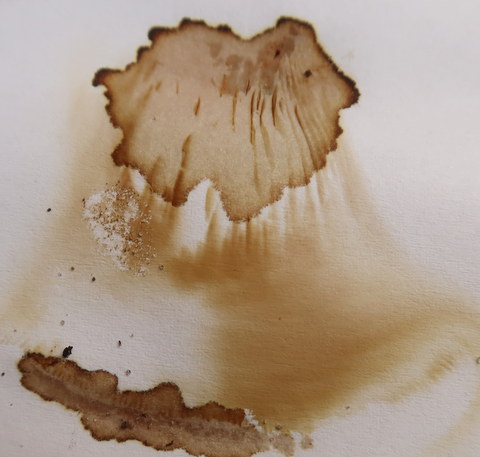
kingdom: Fungi
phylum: Basidiomycota
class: Agaricomycetes
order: Boletales
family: Paxillaceae
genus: Paxillus
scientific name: Paxillus obscurisporus
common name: mahognisporet netbladhat
